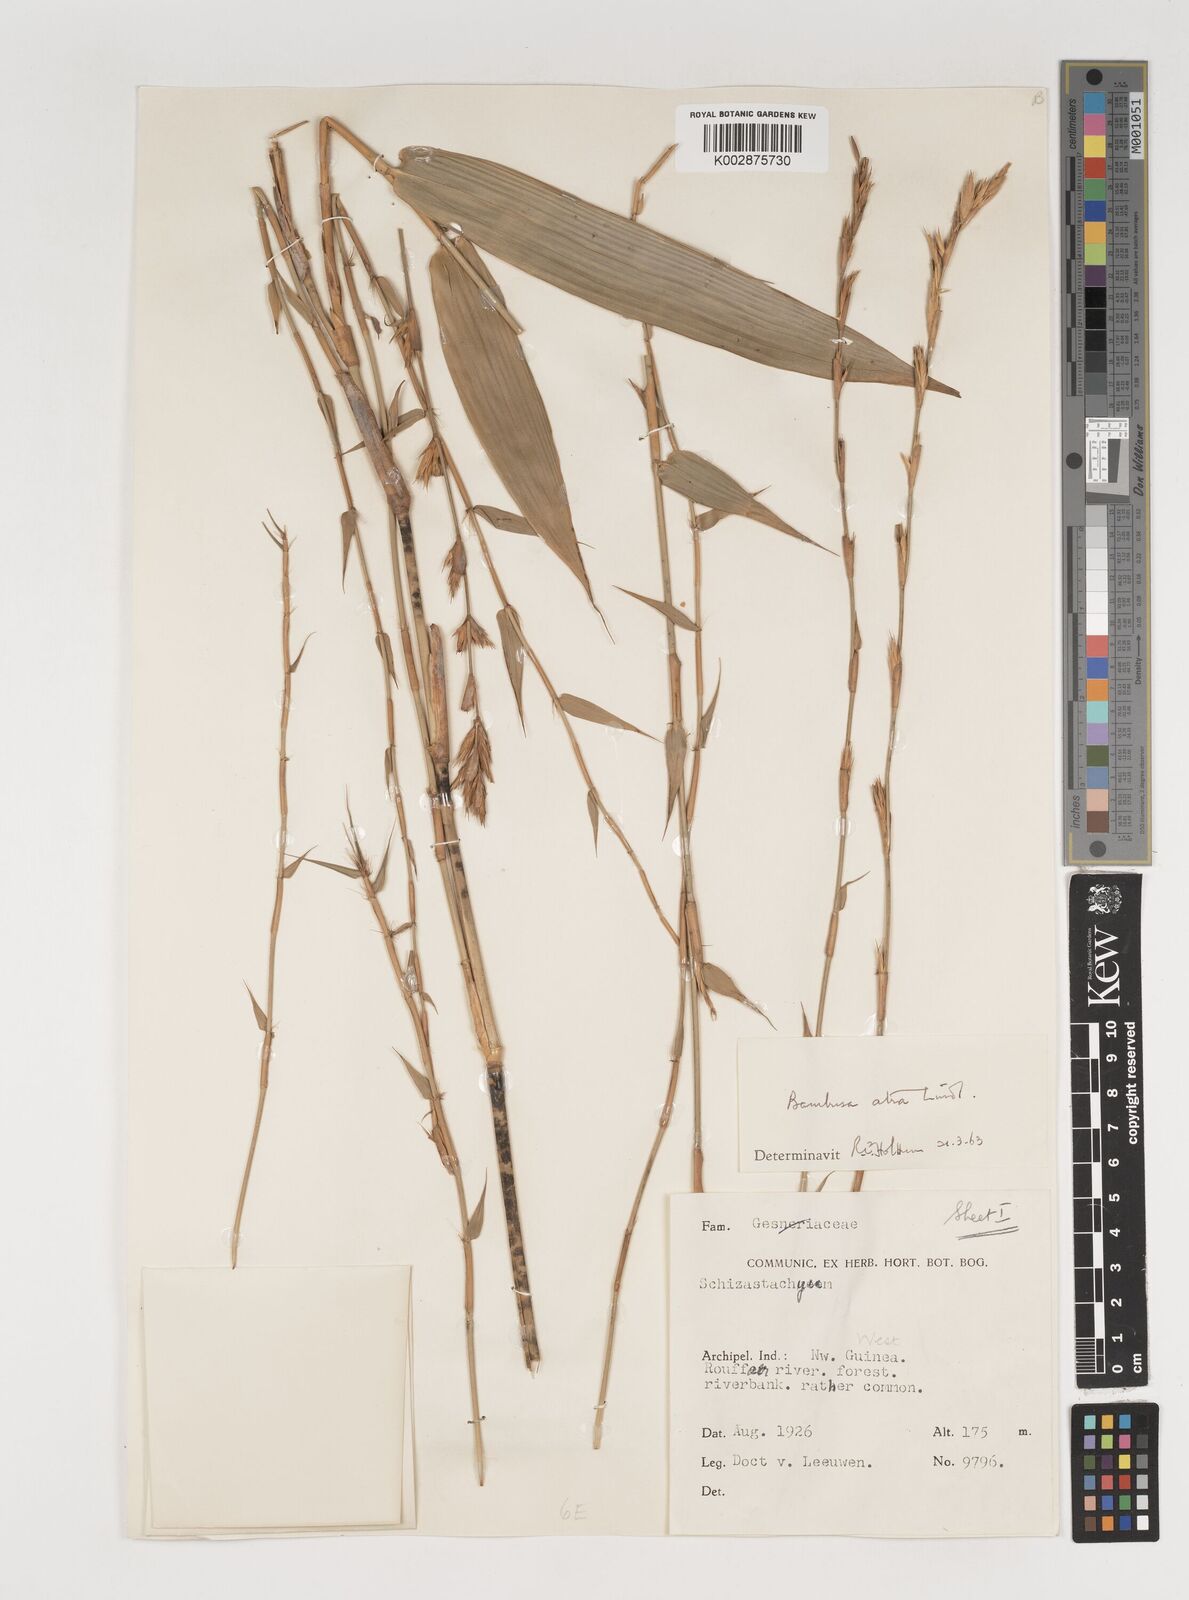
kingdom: Plantae
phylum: Tracheophyta
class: Liliopsida
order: Poales
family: Poaceae
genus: Neololeba
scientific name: Neololeba atra
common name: Cape bamboo
